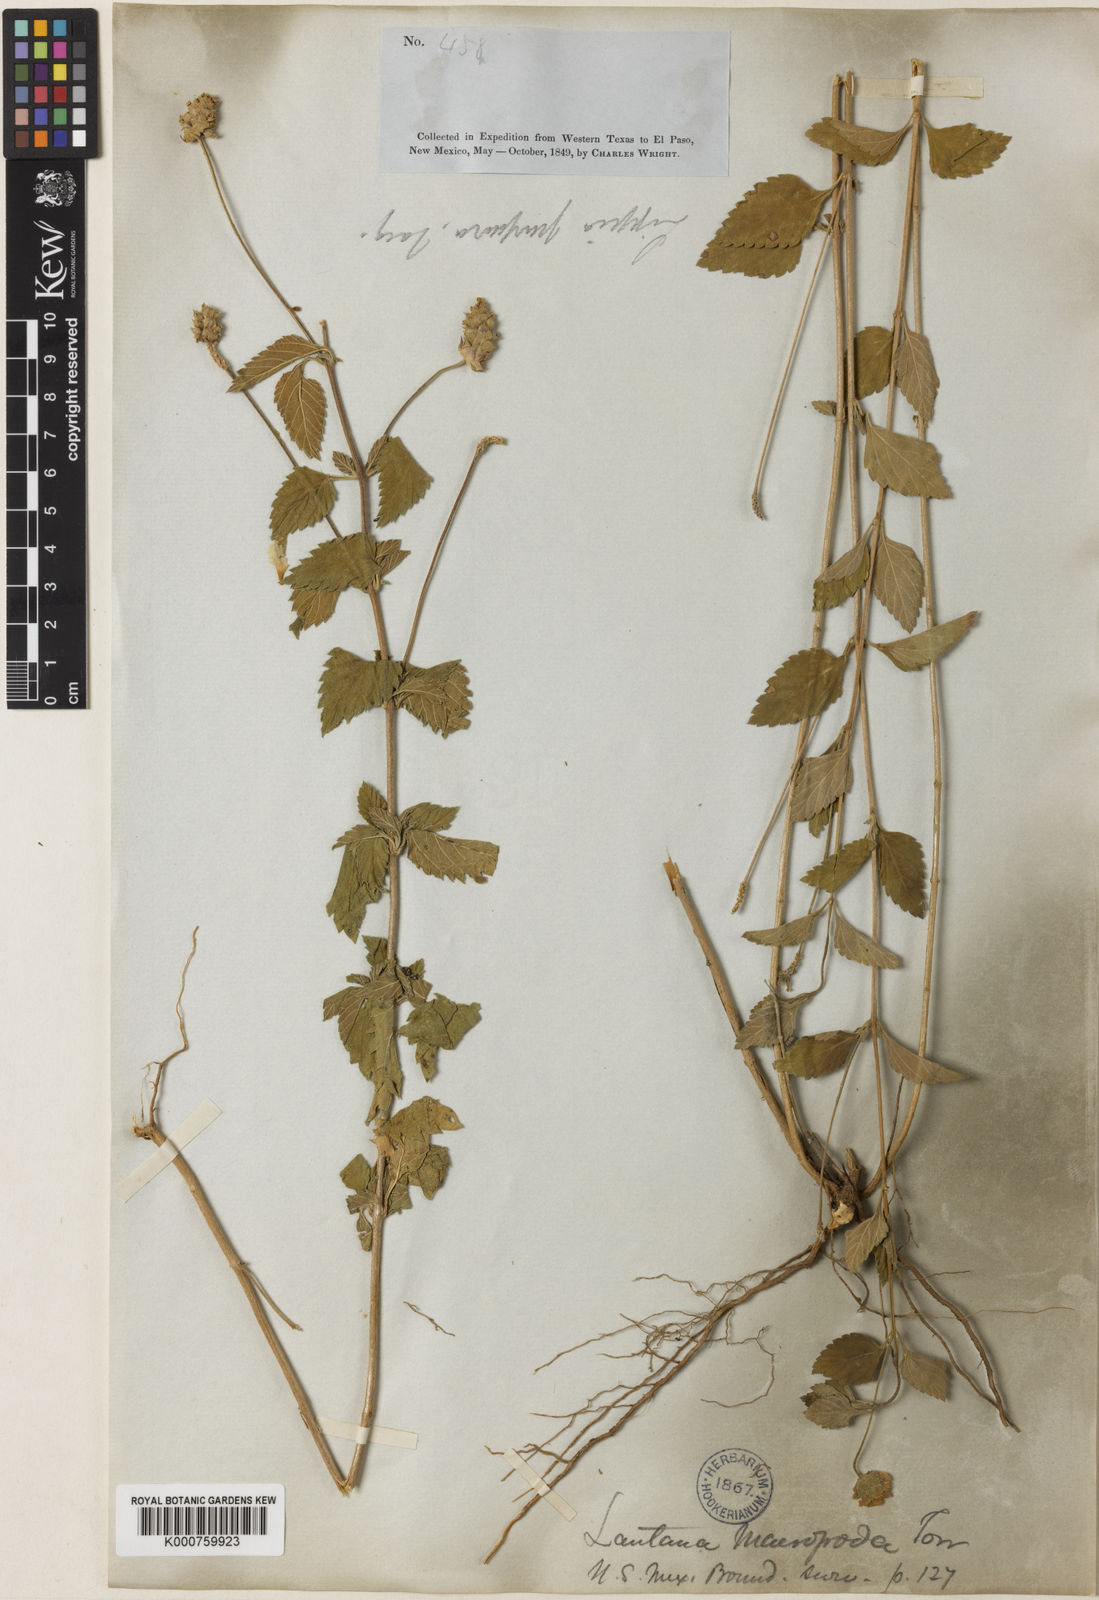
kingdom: Plantae
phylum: Tracheophyta
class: Magnoliopsida
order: Lamiales
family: Verbenaceae
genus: Lantana
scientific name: Lantana achyranthifolia
